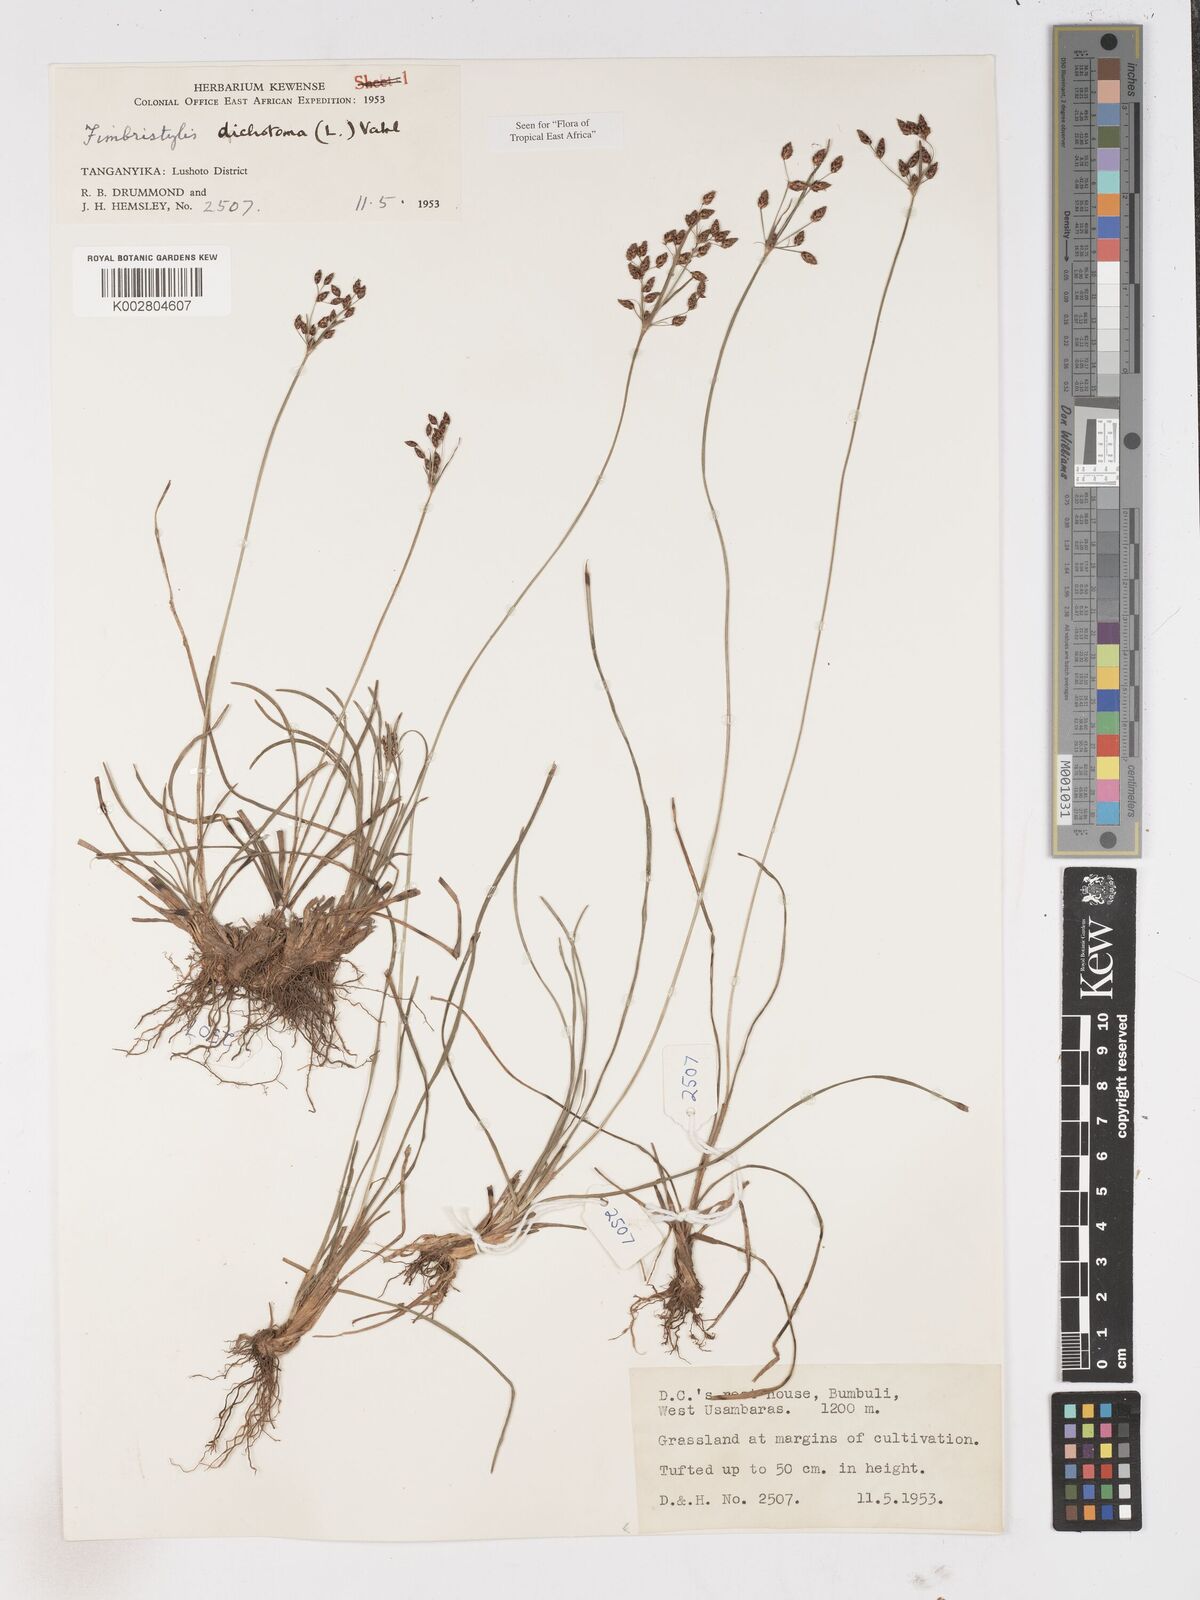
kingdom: Plantae
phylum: Tracheophyta
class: Liliopsida
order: Poales
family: Cyperaceae
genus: Fimbristylis
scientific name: Fimbristylis dichotoma
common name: Forked fimbry
